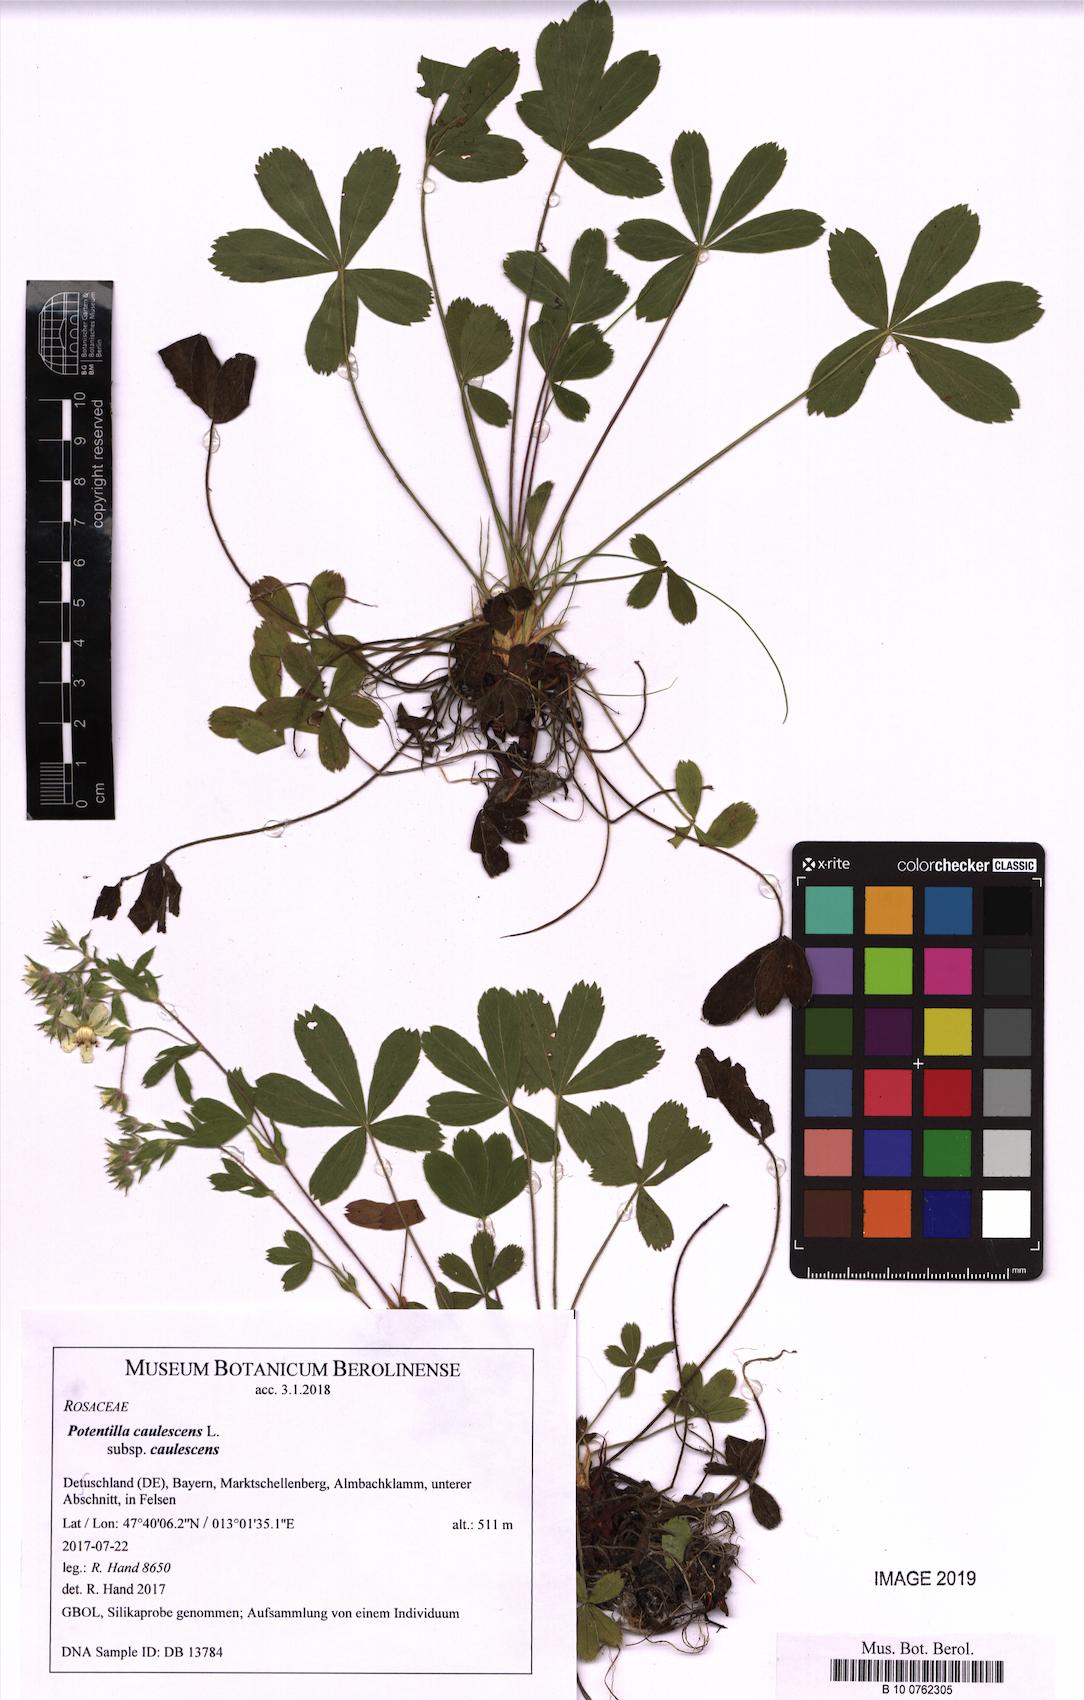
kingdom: Plantae
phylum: Tracheophyta
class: Magnoliopsida
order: Rosales
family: Rosaceae
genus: Potentilla
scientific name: Potentilla caulescens
